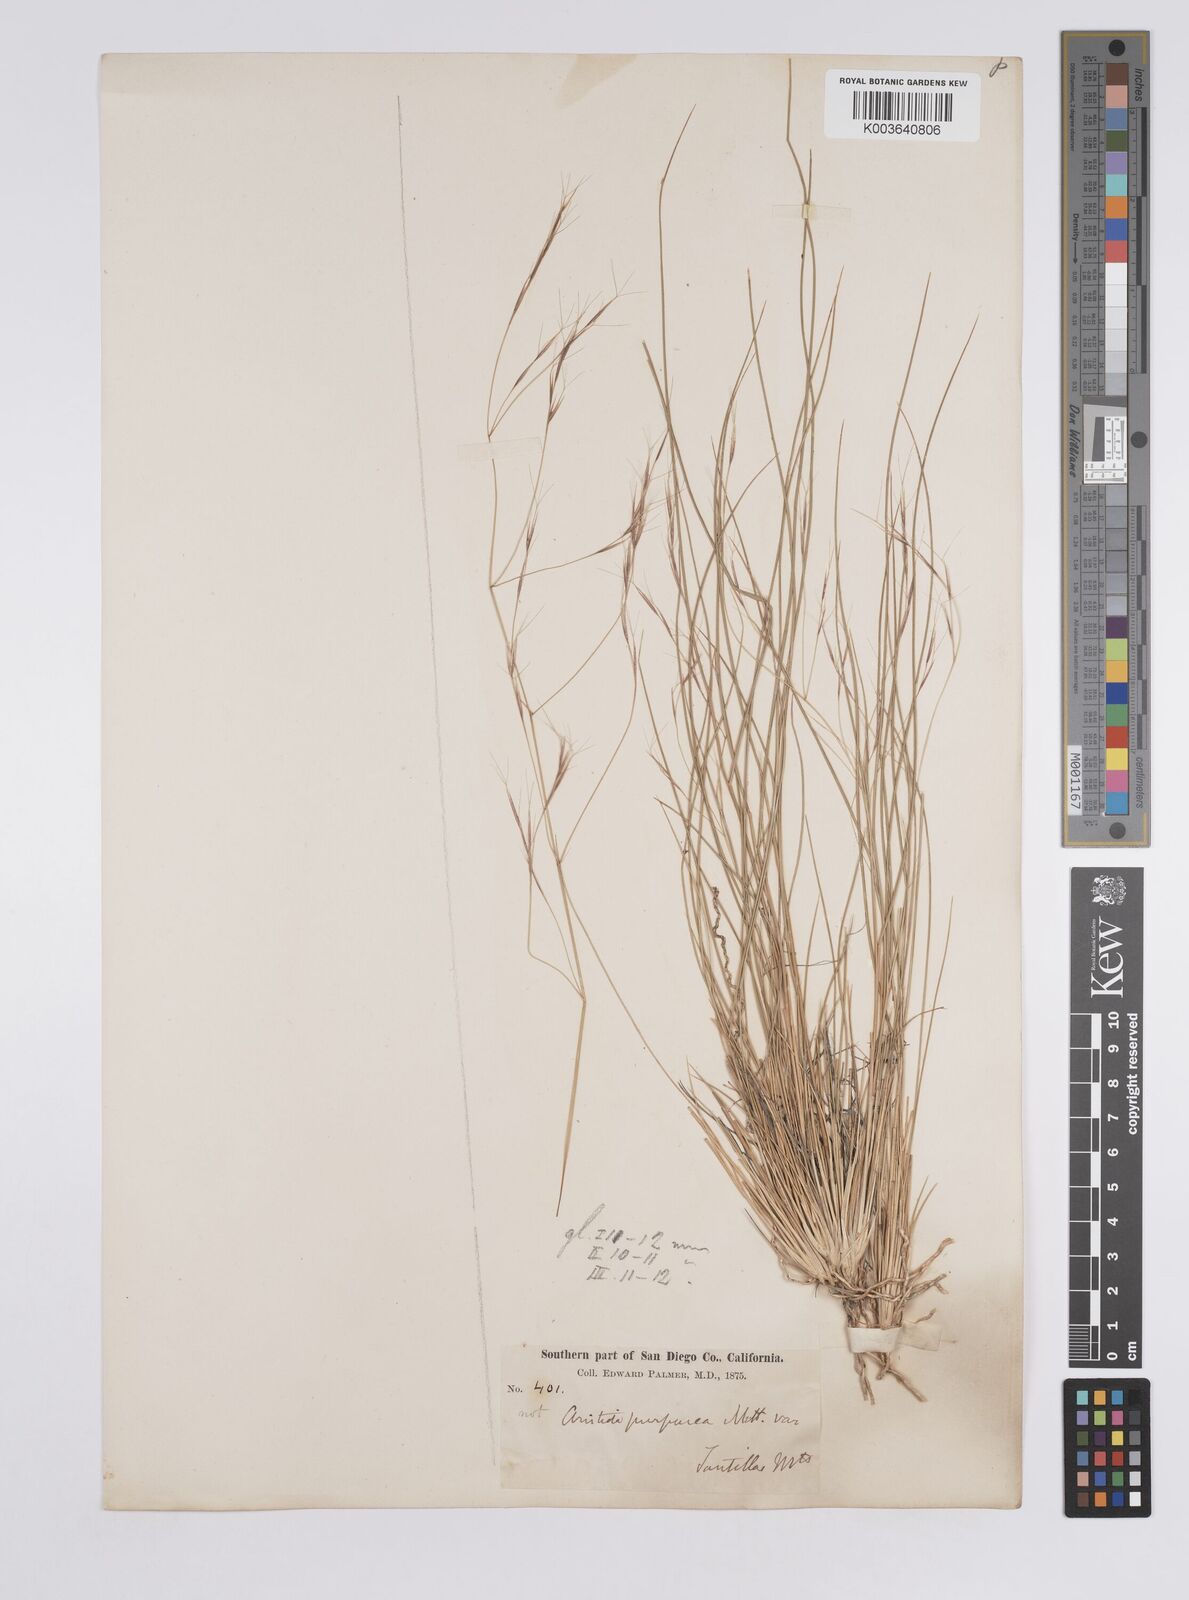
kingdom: Plantae
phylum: Tracheophyta
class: Liliopsida
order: Poales
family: Poaceae
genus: Aristida
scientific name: Aristida laxa
